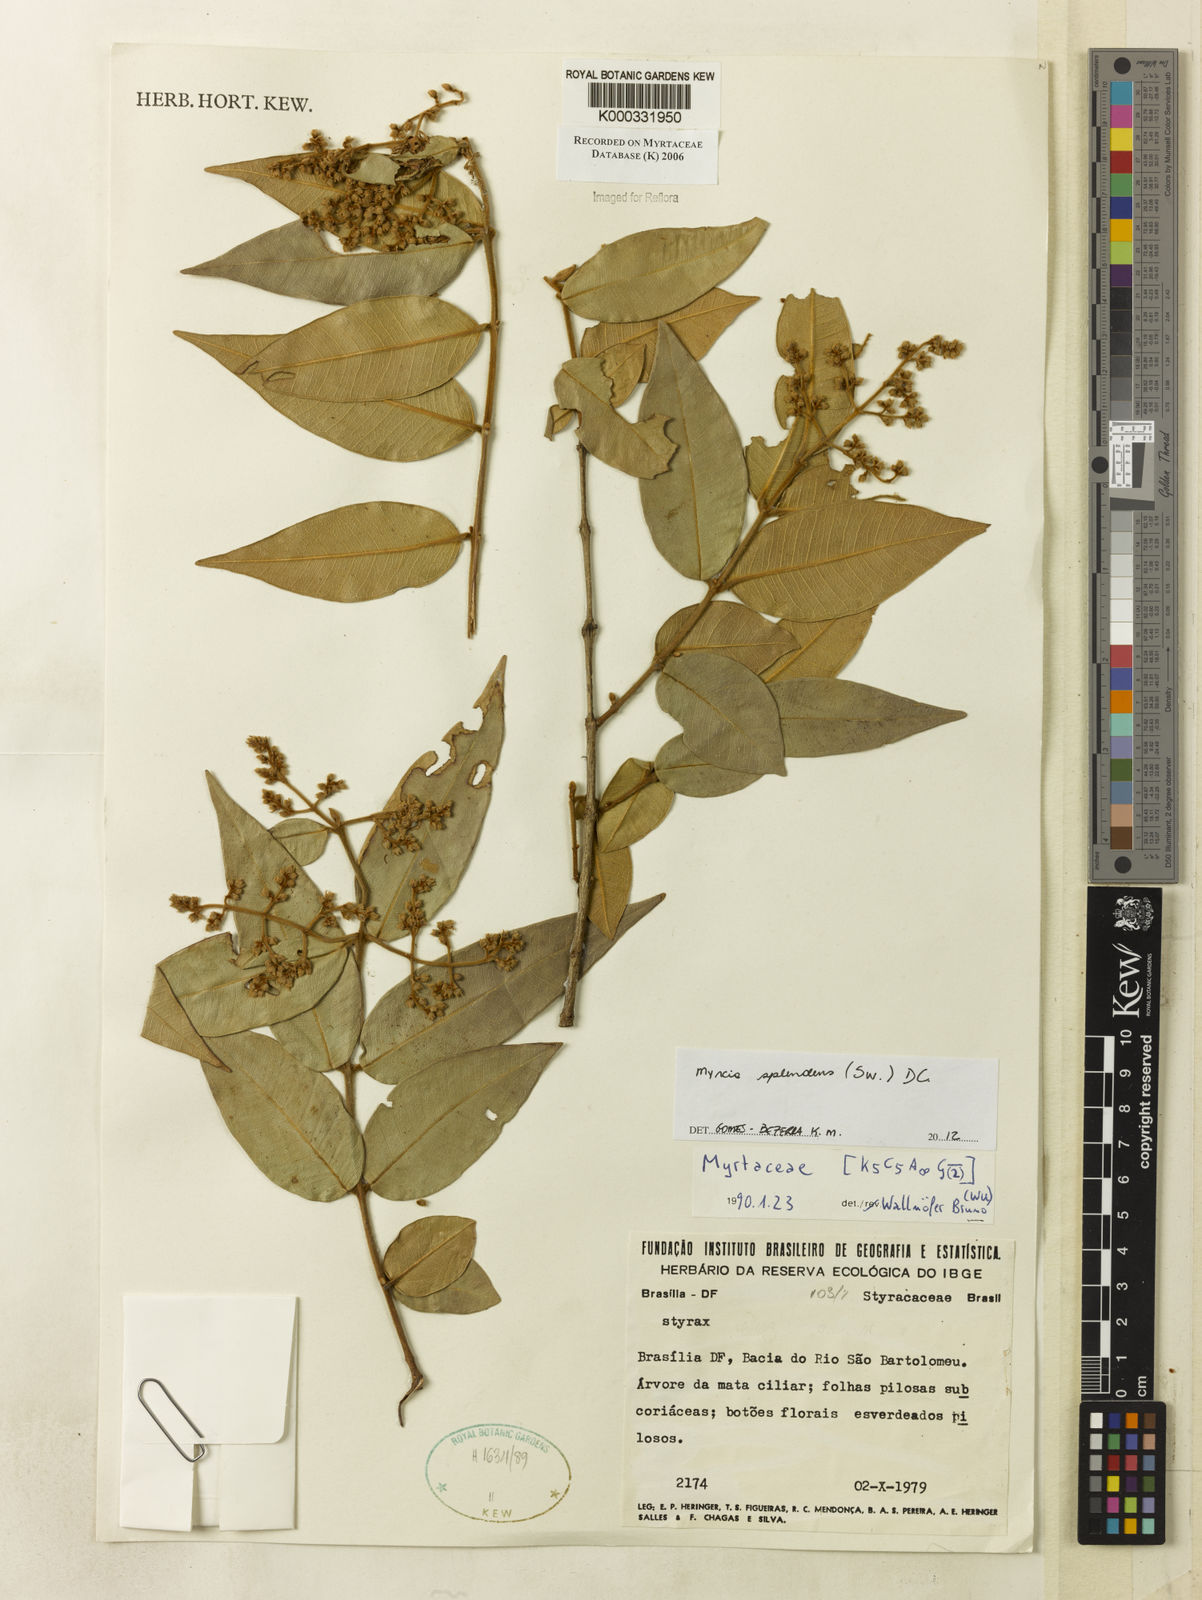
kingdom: Plantae
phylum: Tracheophyta
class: Magnoliopsida
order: Myrtales
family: Myrtaceae
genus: Myrcia
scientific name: Myrcia
